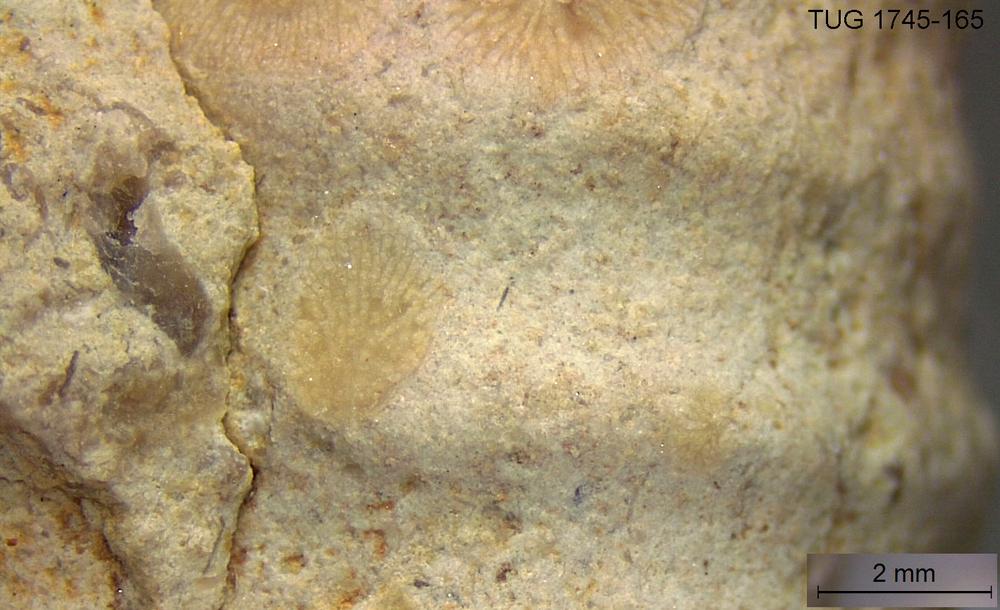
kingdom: Animalia
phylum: Bryozoa
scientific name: Bryozoa
